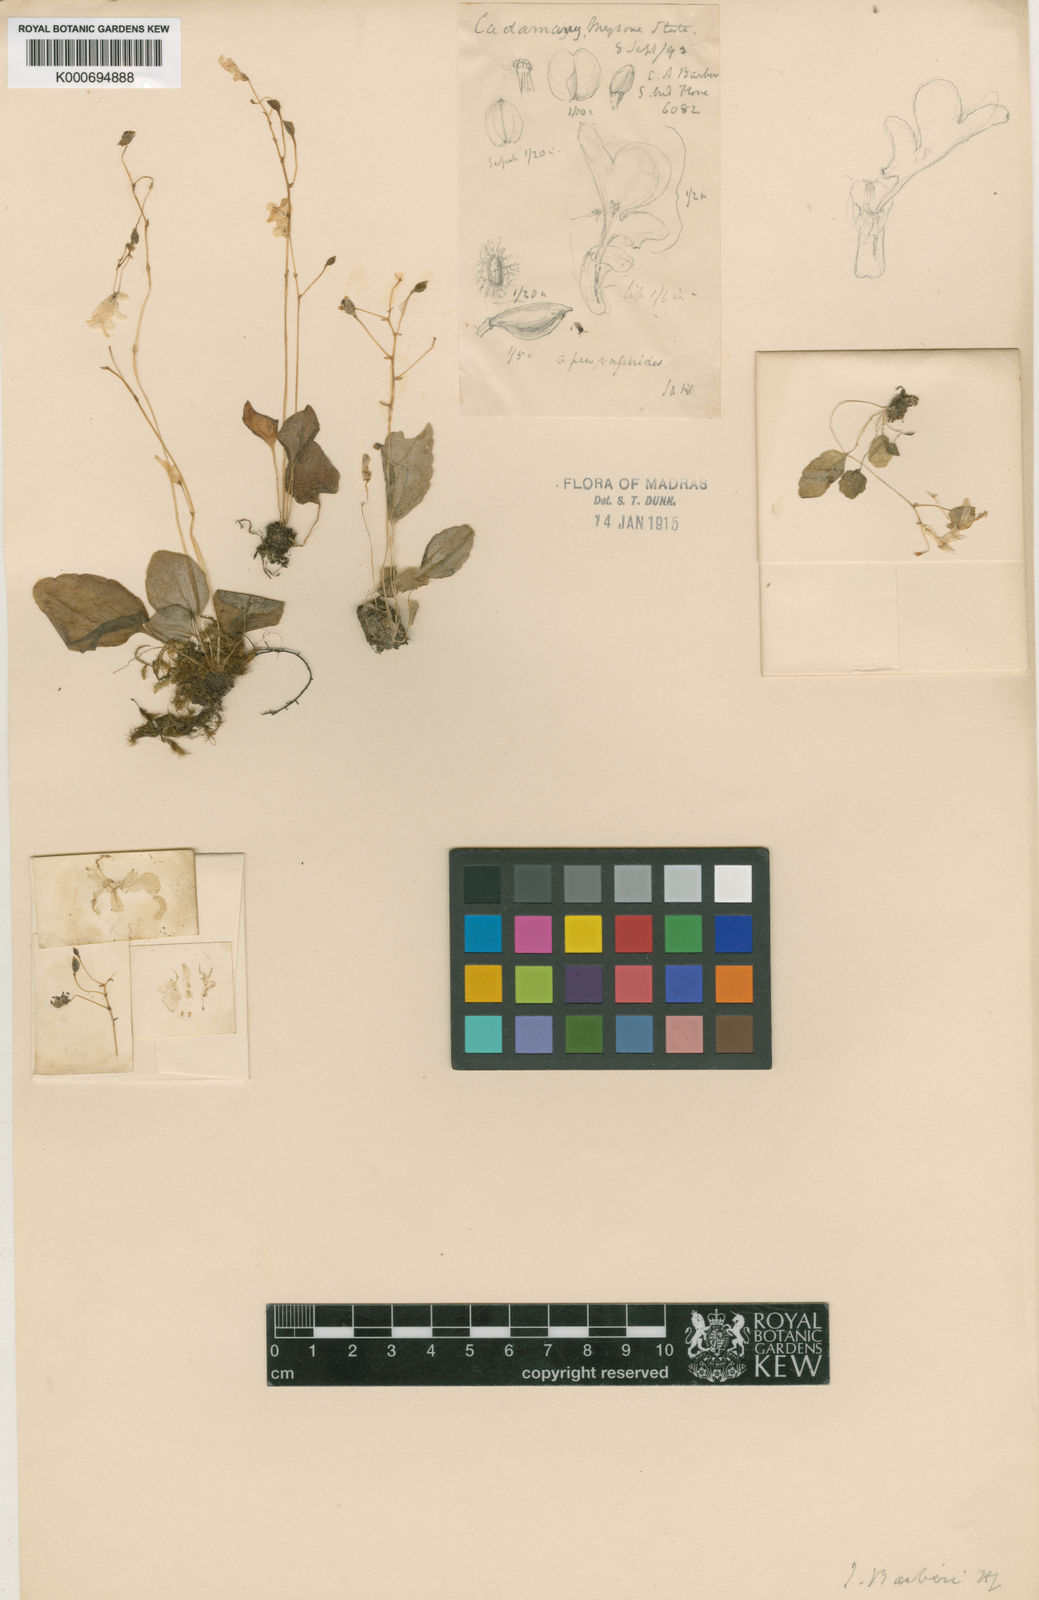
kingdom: Plantae
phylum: Tracheophyta
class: Magnoliopsida
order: Ericales
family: Balsaminaceae
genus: Impatiens
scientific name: Impatiens barberi
